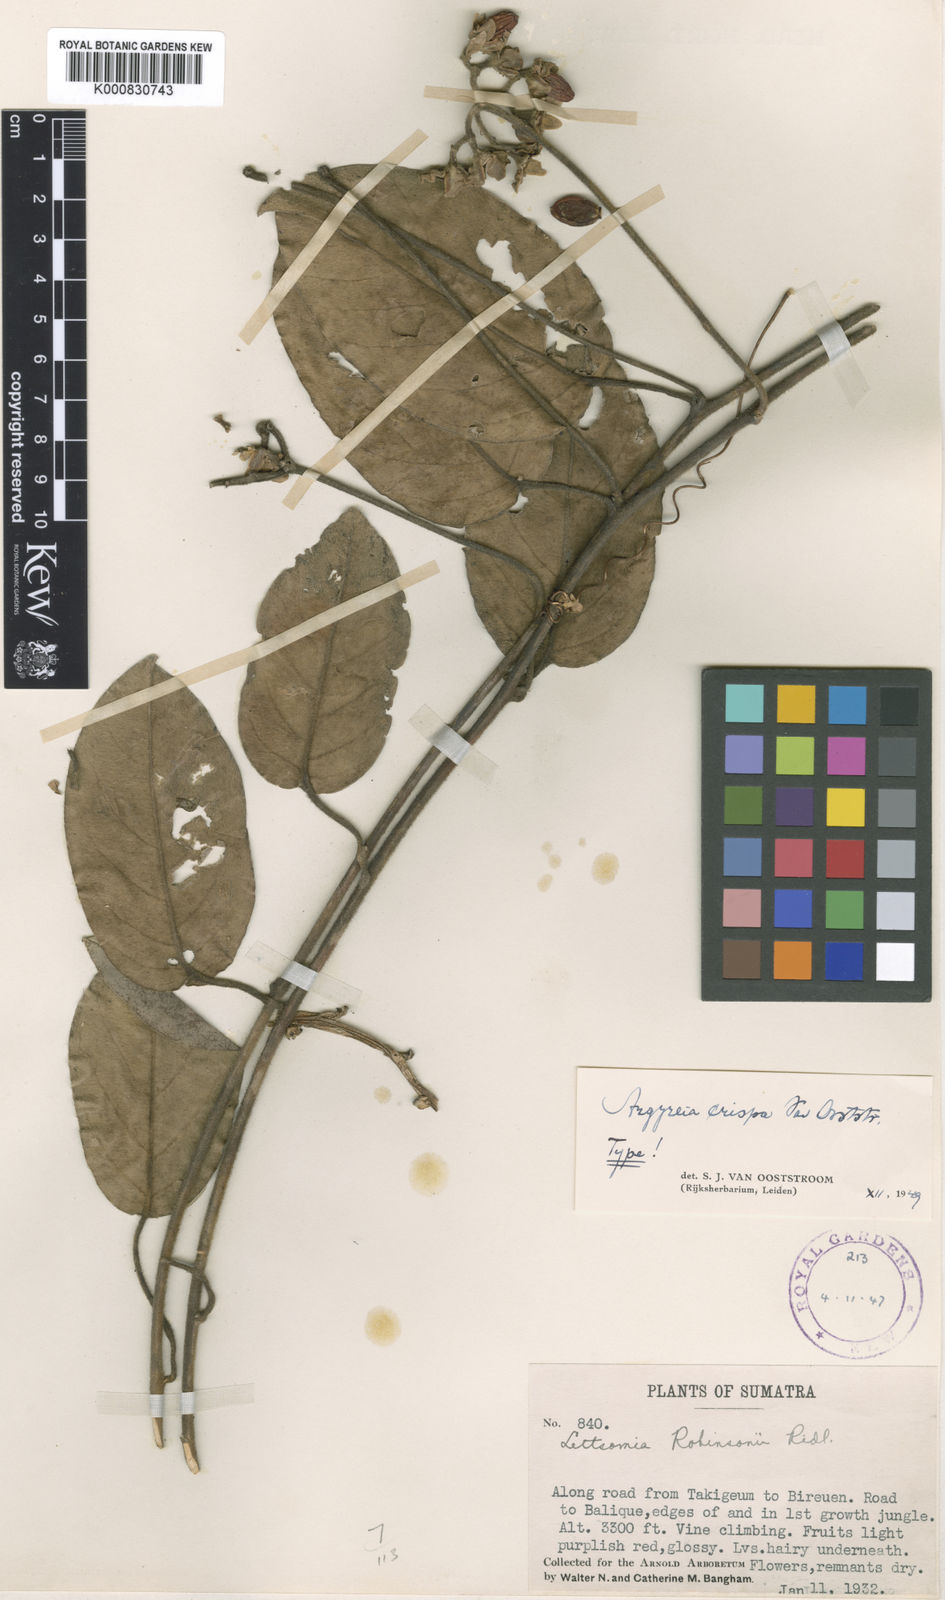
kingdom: Plantae
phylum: Tracheophyta
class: Magnoliopsida
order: Solanales
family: Convolvulaceae
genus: Argyreia
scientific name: Argyreia crispa
